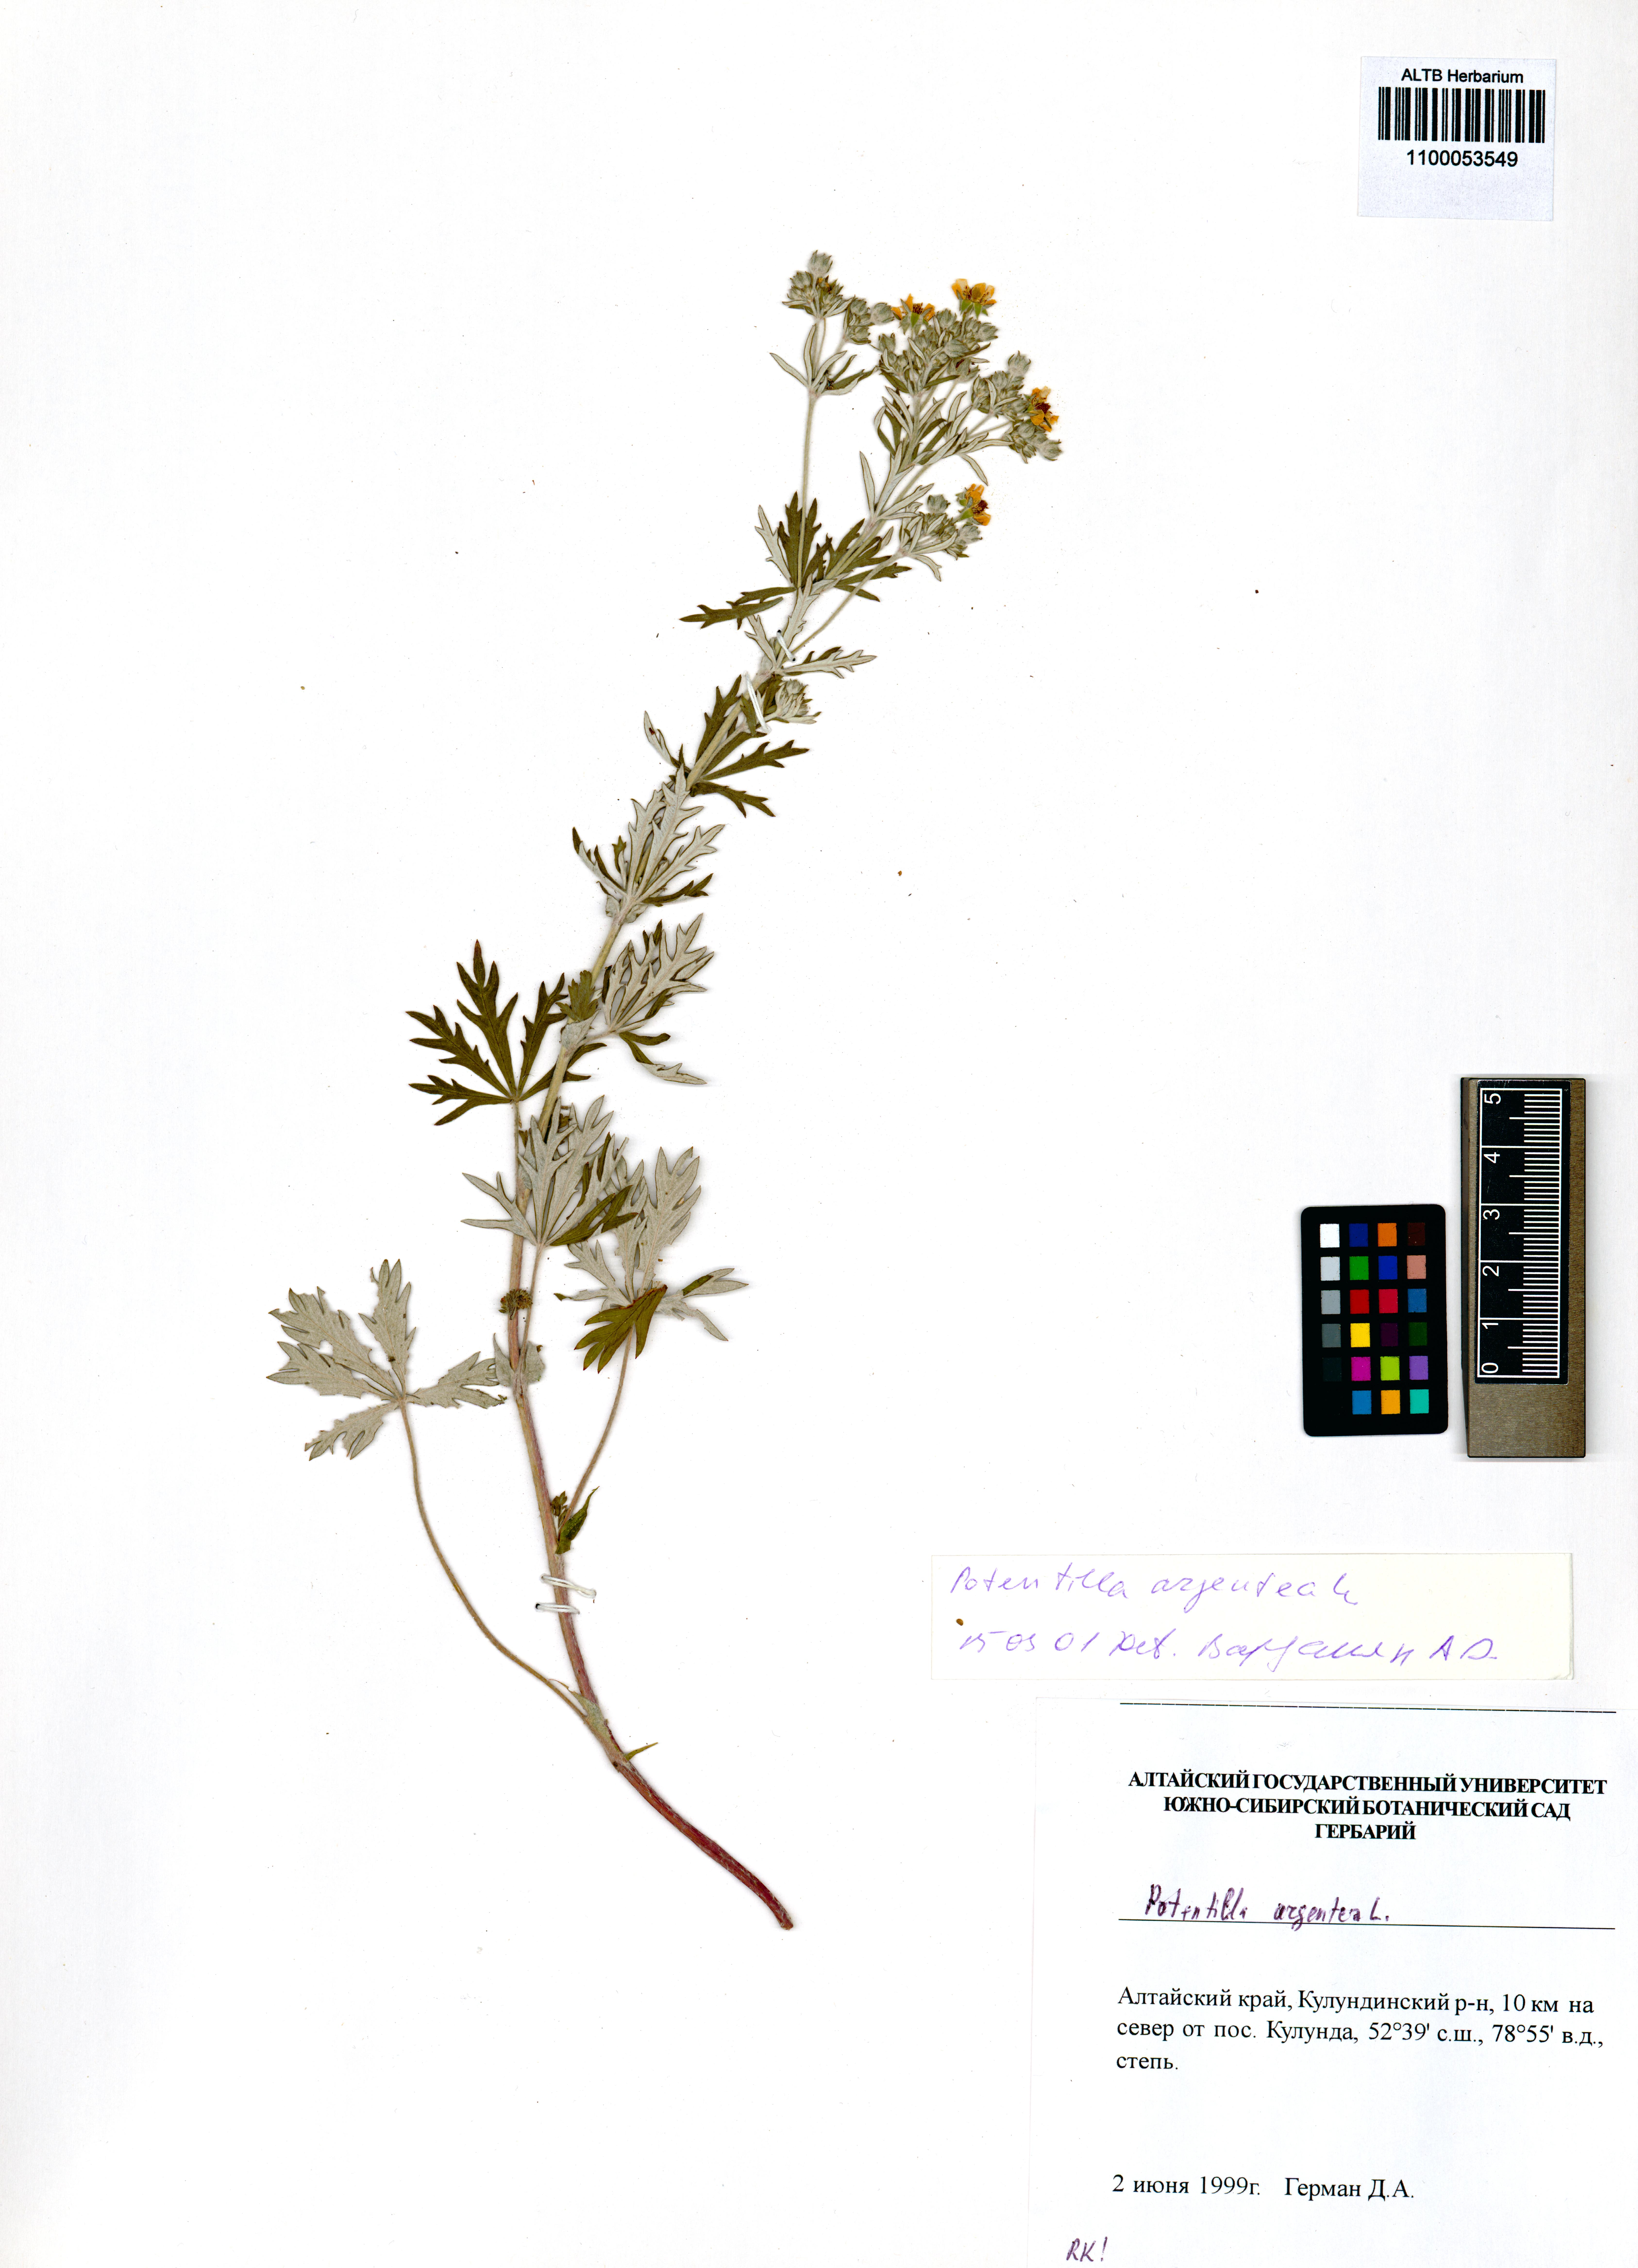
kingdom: Plantae
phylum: Tracheophyta
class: Magnoliopsida
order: Rosales
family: Rosaceae
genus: Potentilla
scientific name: Potentilla argentea
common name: Hoary cinquefoil
